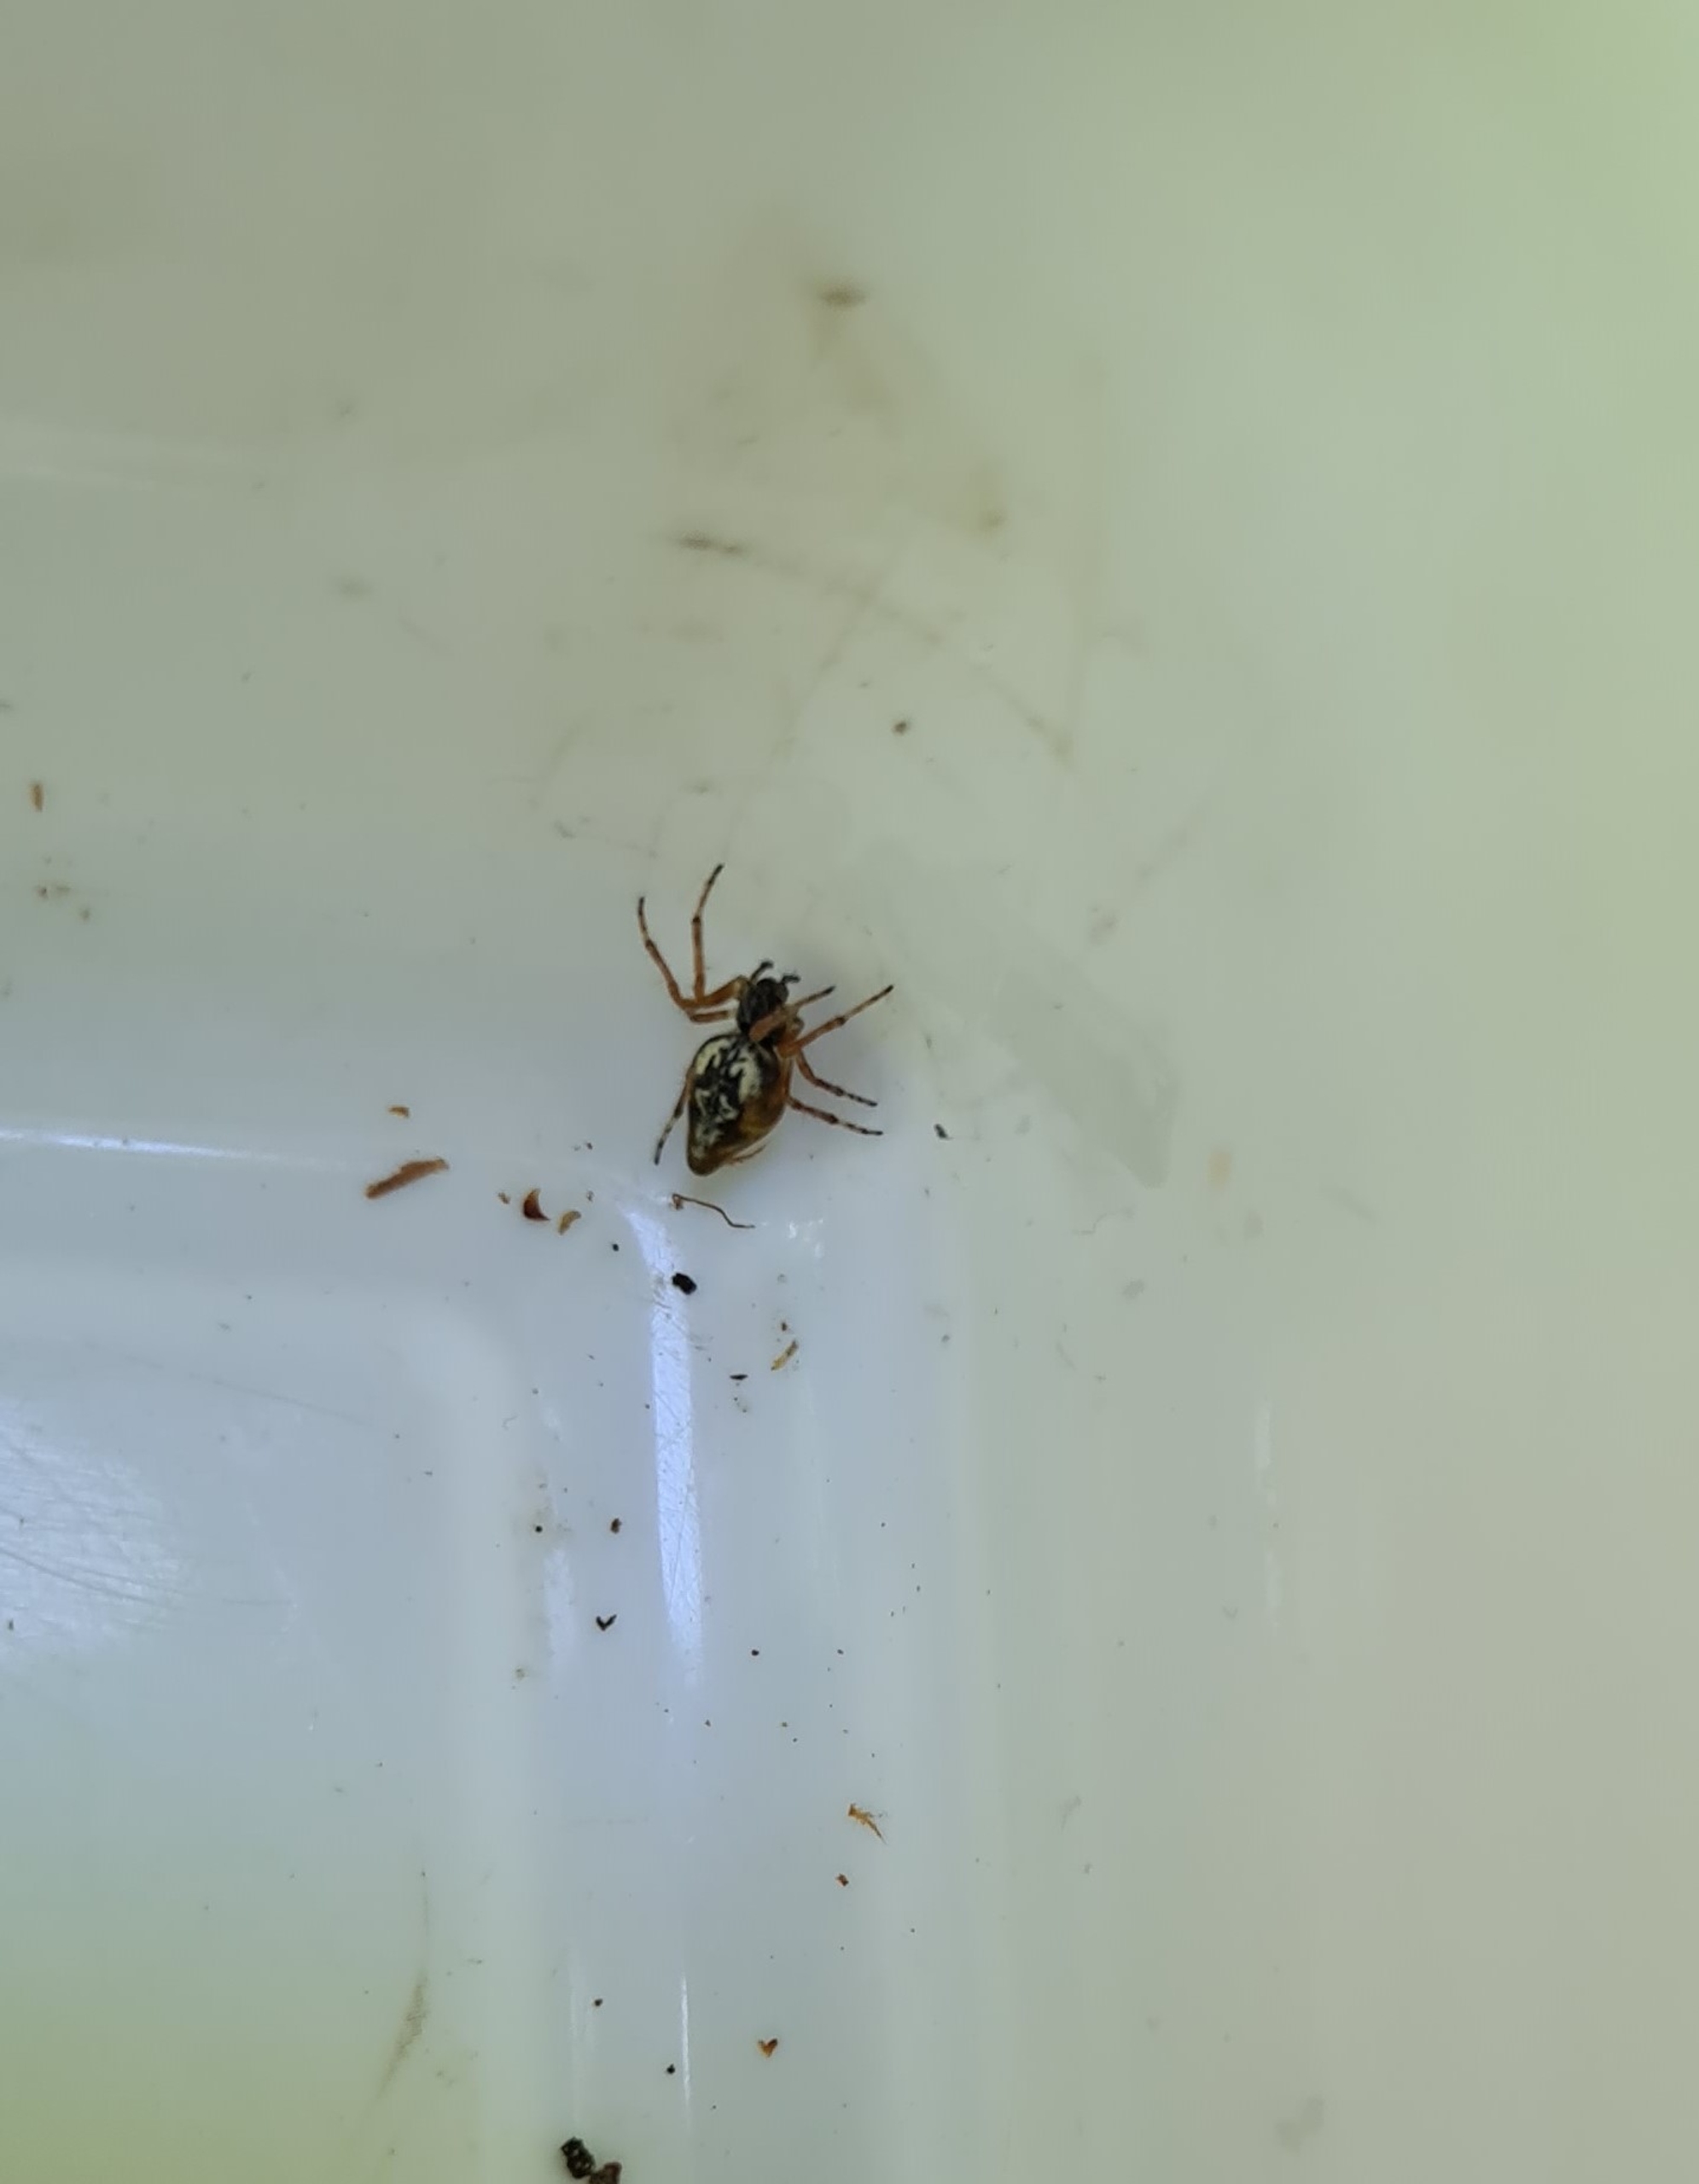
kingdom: Animalia
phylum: Arthropoda
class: Arachnida
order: Araneae
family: Araneidae
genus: Cyclosa
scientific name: Cyclosa conica
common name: Keglerumpe
